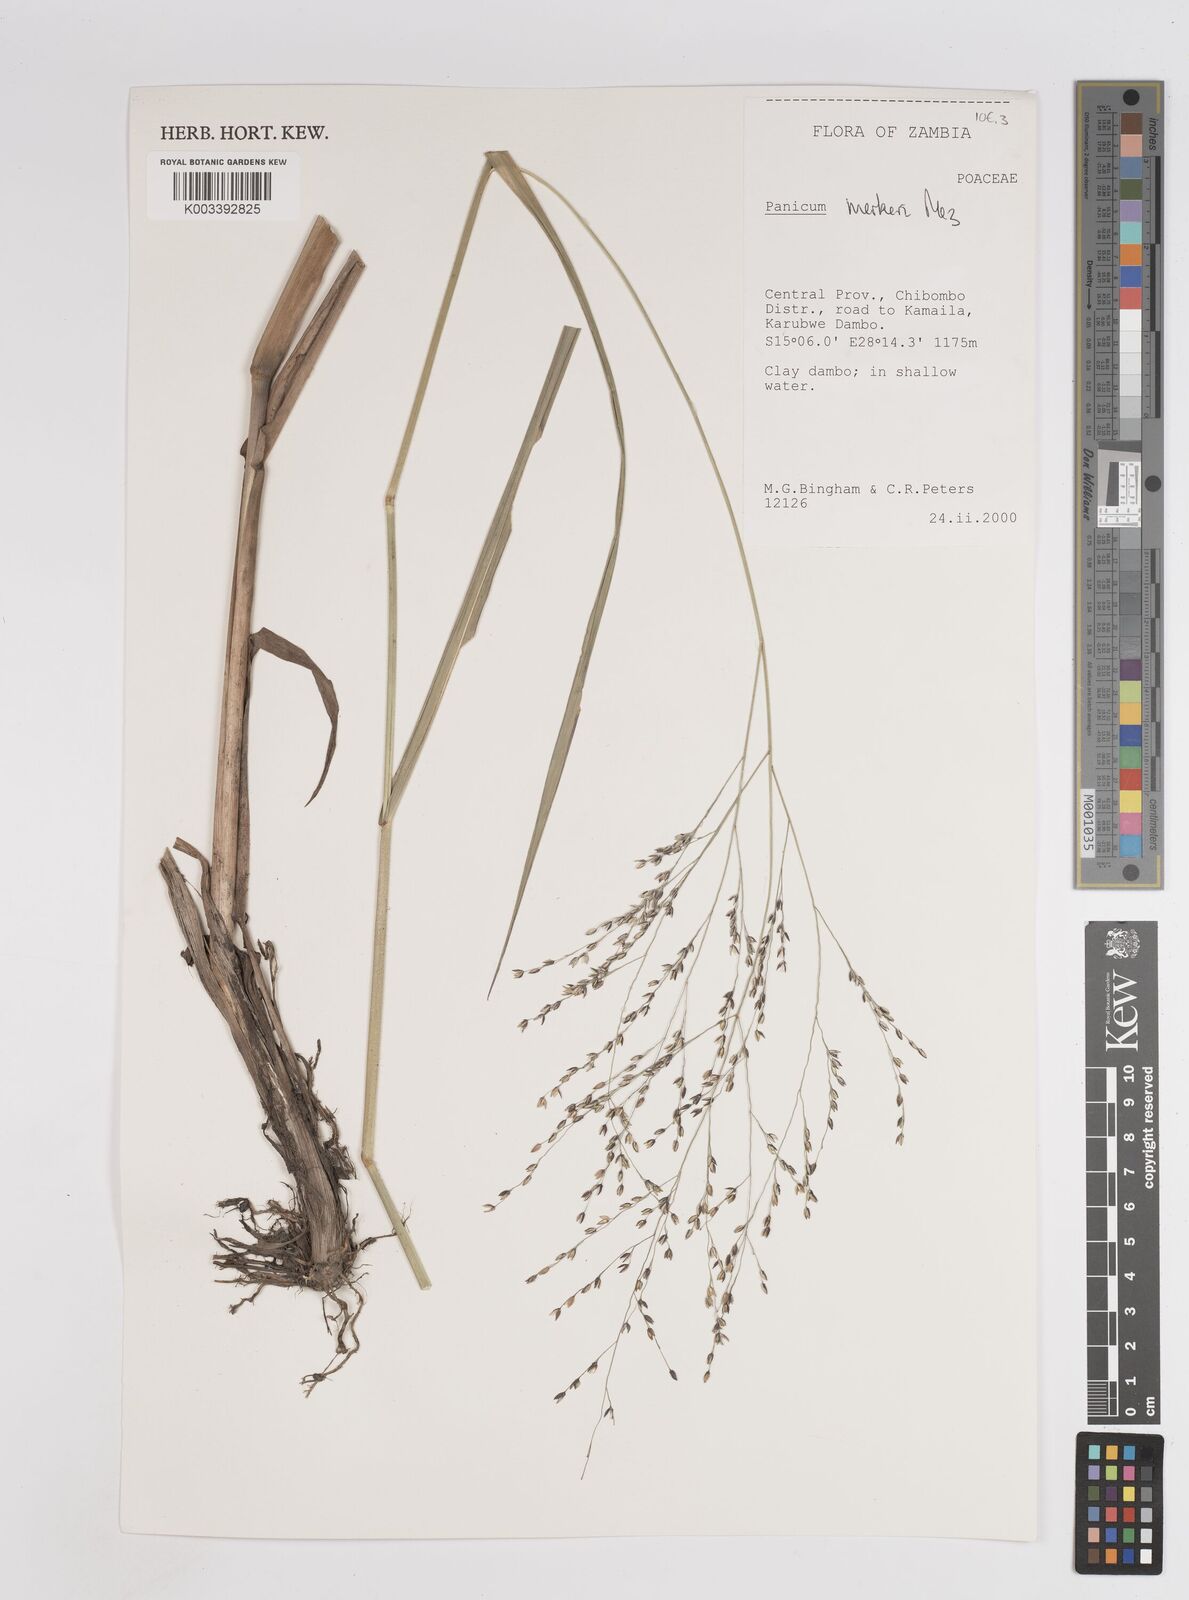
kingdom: Plantae
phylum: Tracheophyta
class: Liliopsida
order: Poales
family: Poaceae
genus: Panicum
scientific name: Panicum merkeri
